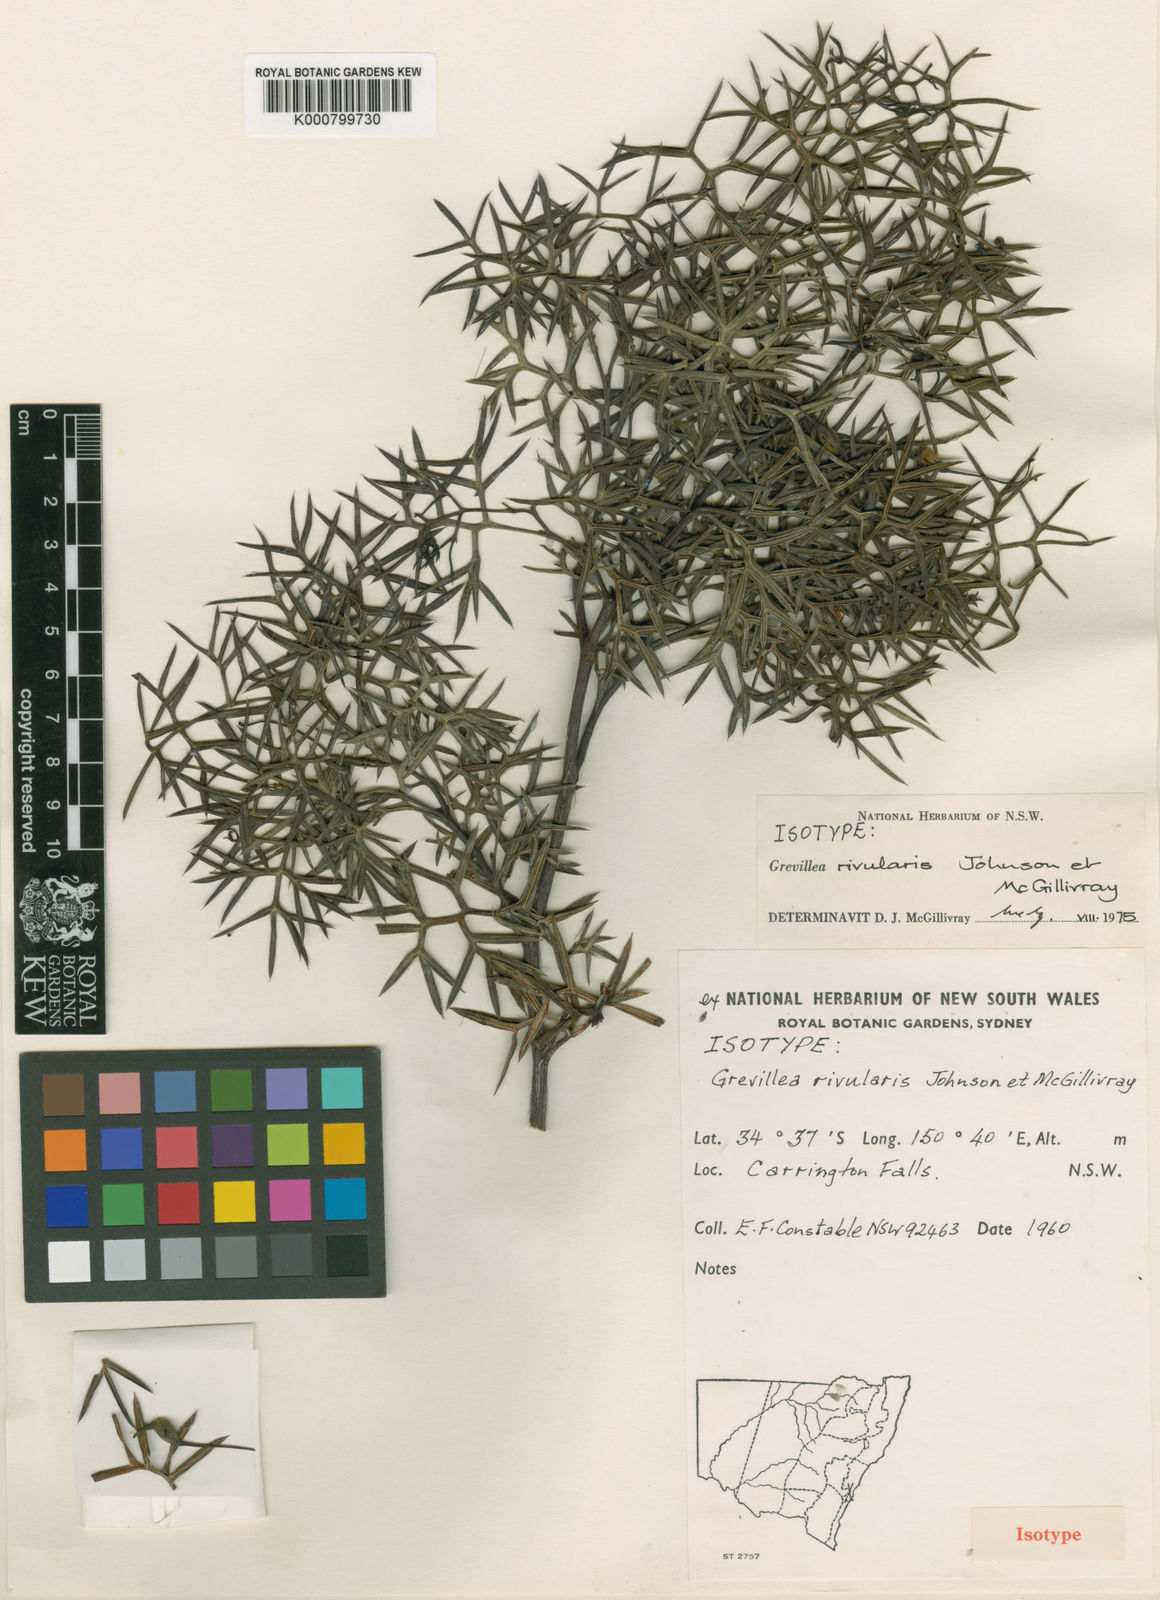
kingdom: Plantae
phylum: Tracheophyta
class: Magnoliopsida
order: Proteales
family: Proteaceae
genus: Grevillea
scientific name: Grevillea rivularis
